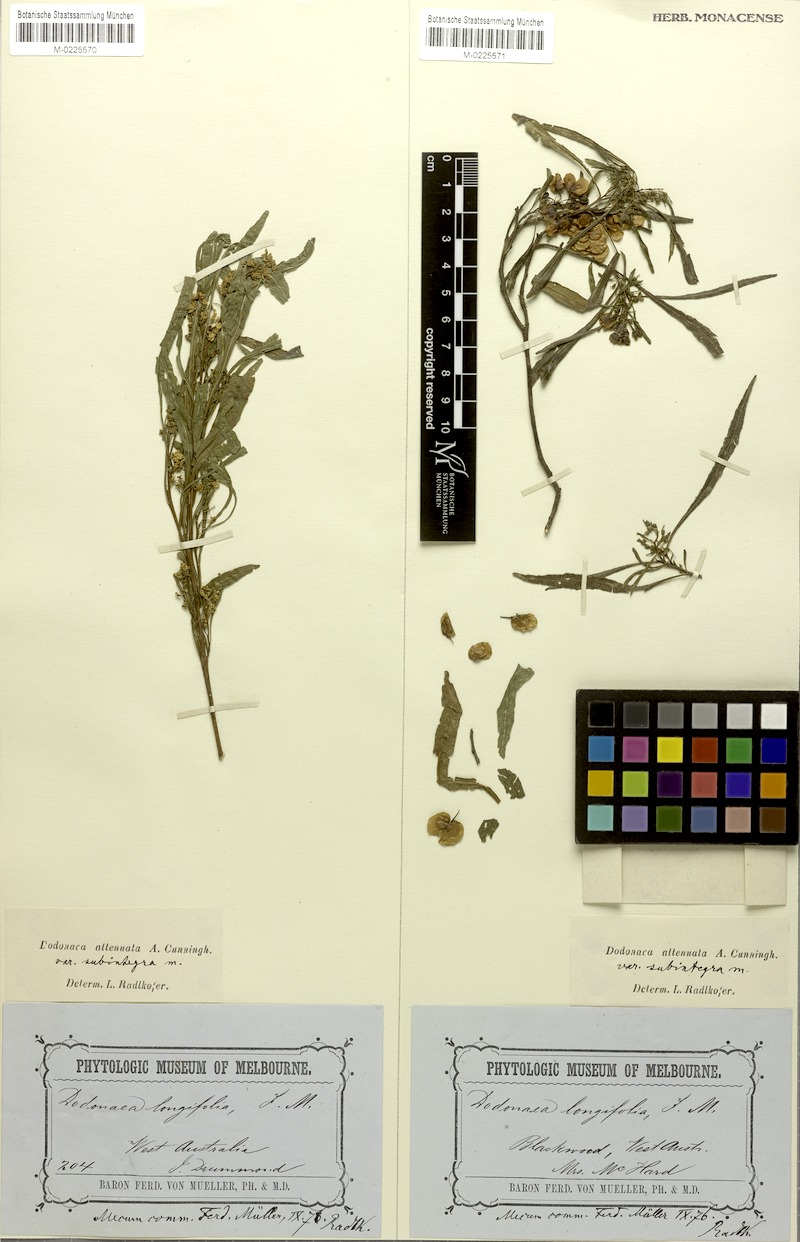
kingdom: Plantae
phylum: Tracheophyta
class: Magnoliopsida
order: Sapindales
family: Sapindaceae
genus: Dodonaea
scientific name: Dodonaea viscosa
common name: Hopbush
